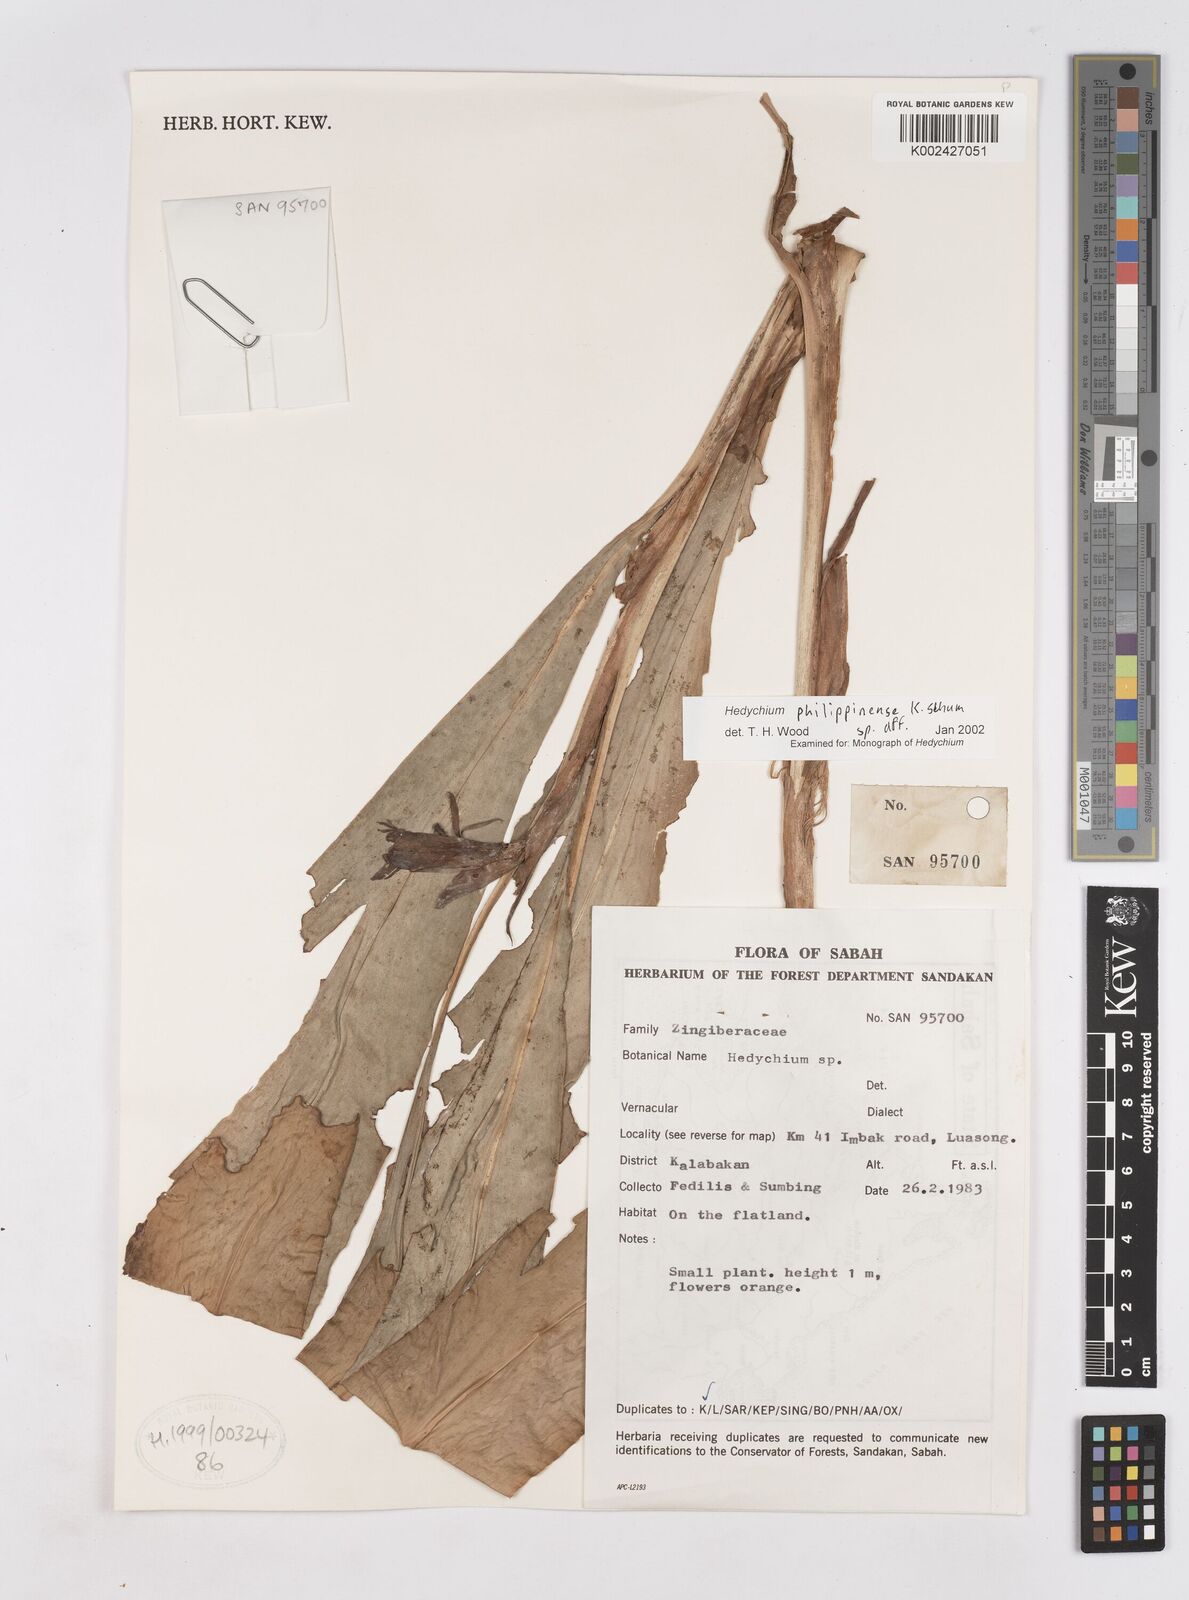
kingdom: Plantae
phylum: Tracheophyta
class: Liliopsida
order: Zingiberales
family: Zingiberaceae
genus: Hedychium
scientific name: Hedychium philippinense
